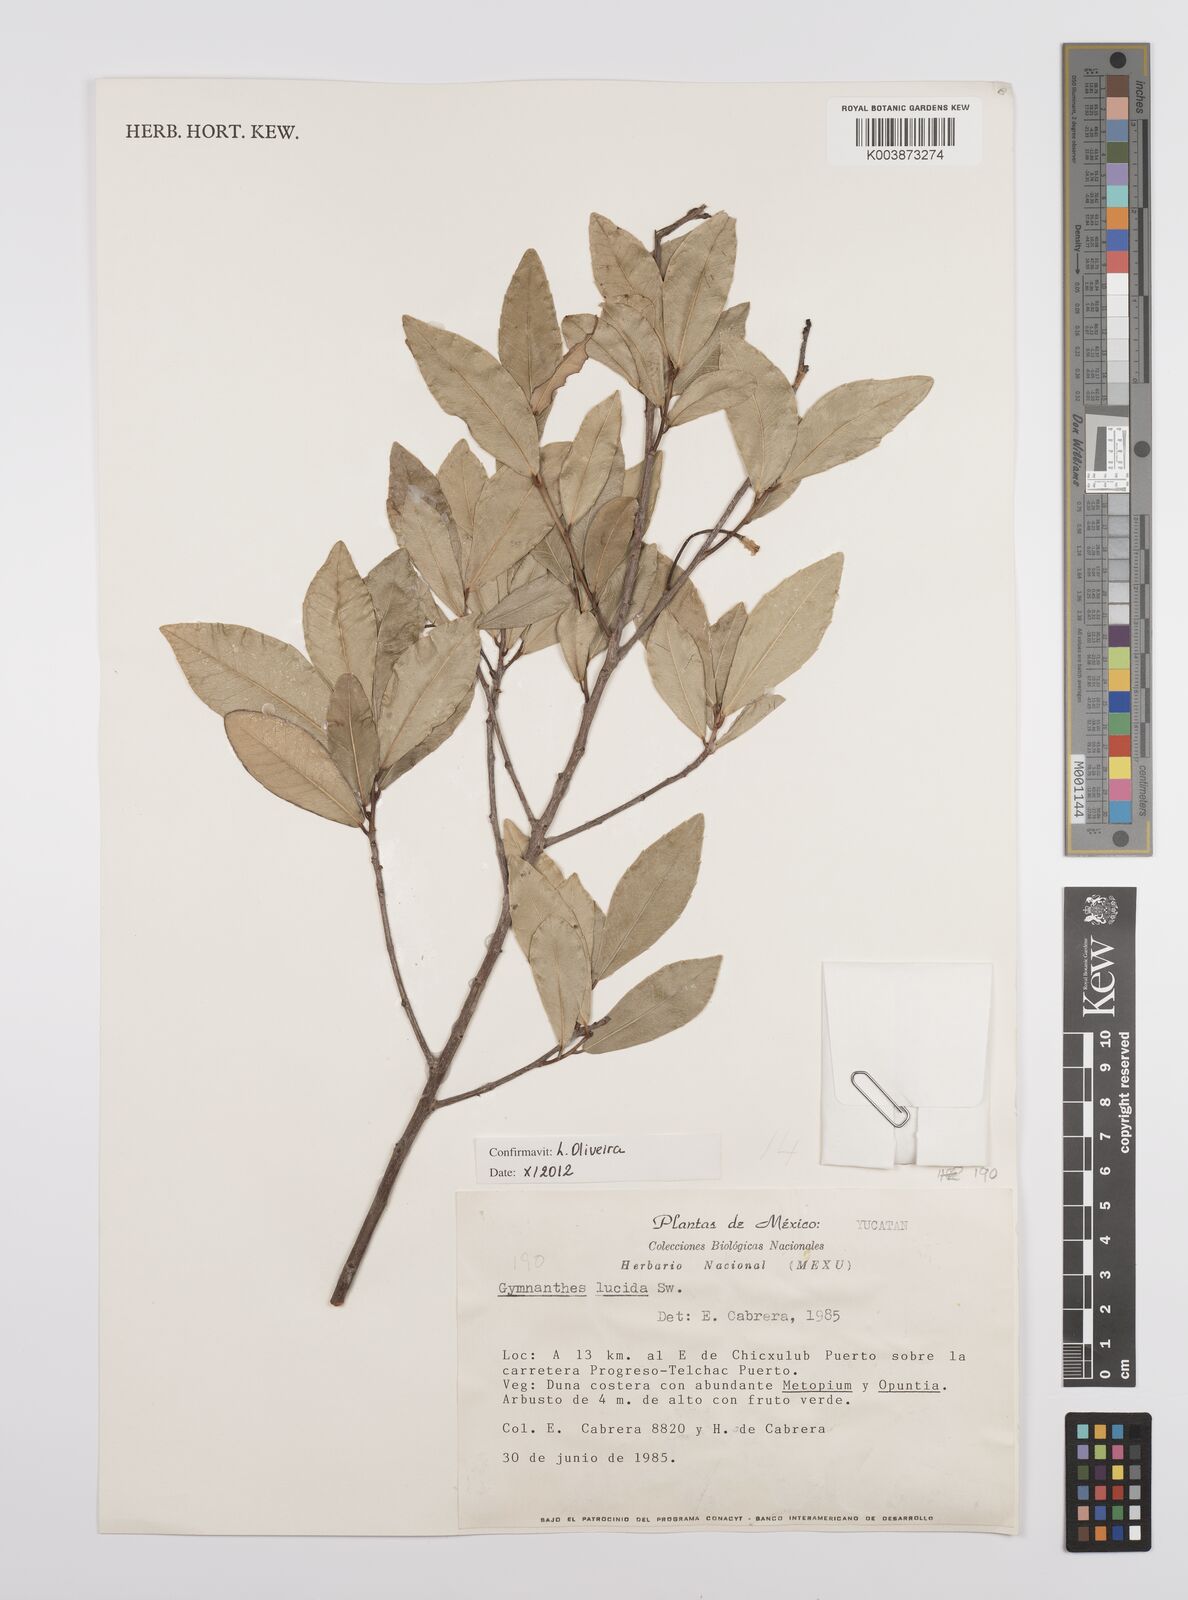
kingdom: Plantae
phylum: Tracheophyta
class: Magnoliopsida
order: Malpighiales
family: Euphorbiaceae
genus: Gymnanthes
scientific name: Gymnanthes lucida
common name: Oysterwood
